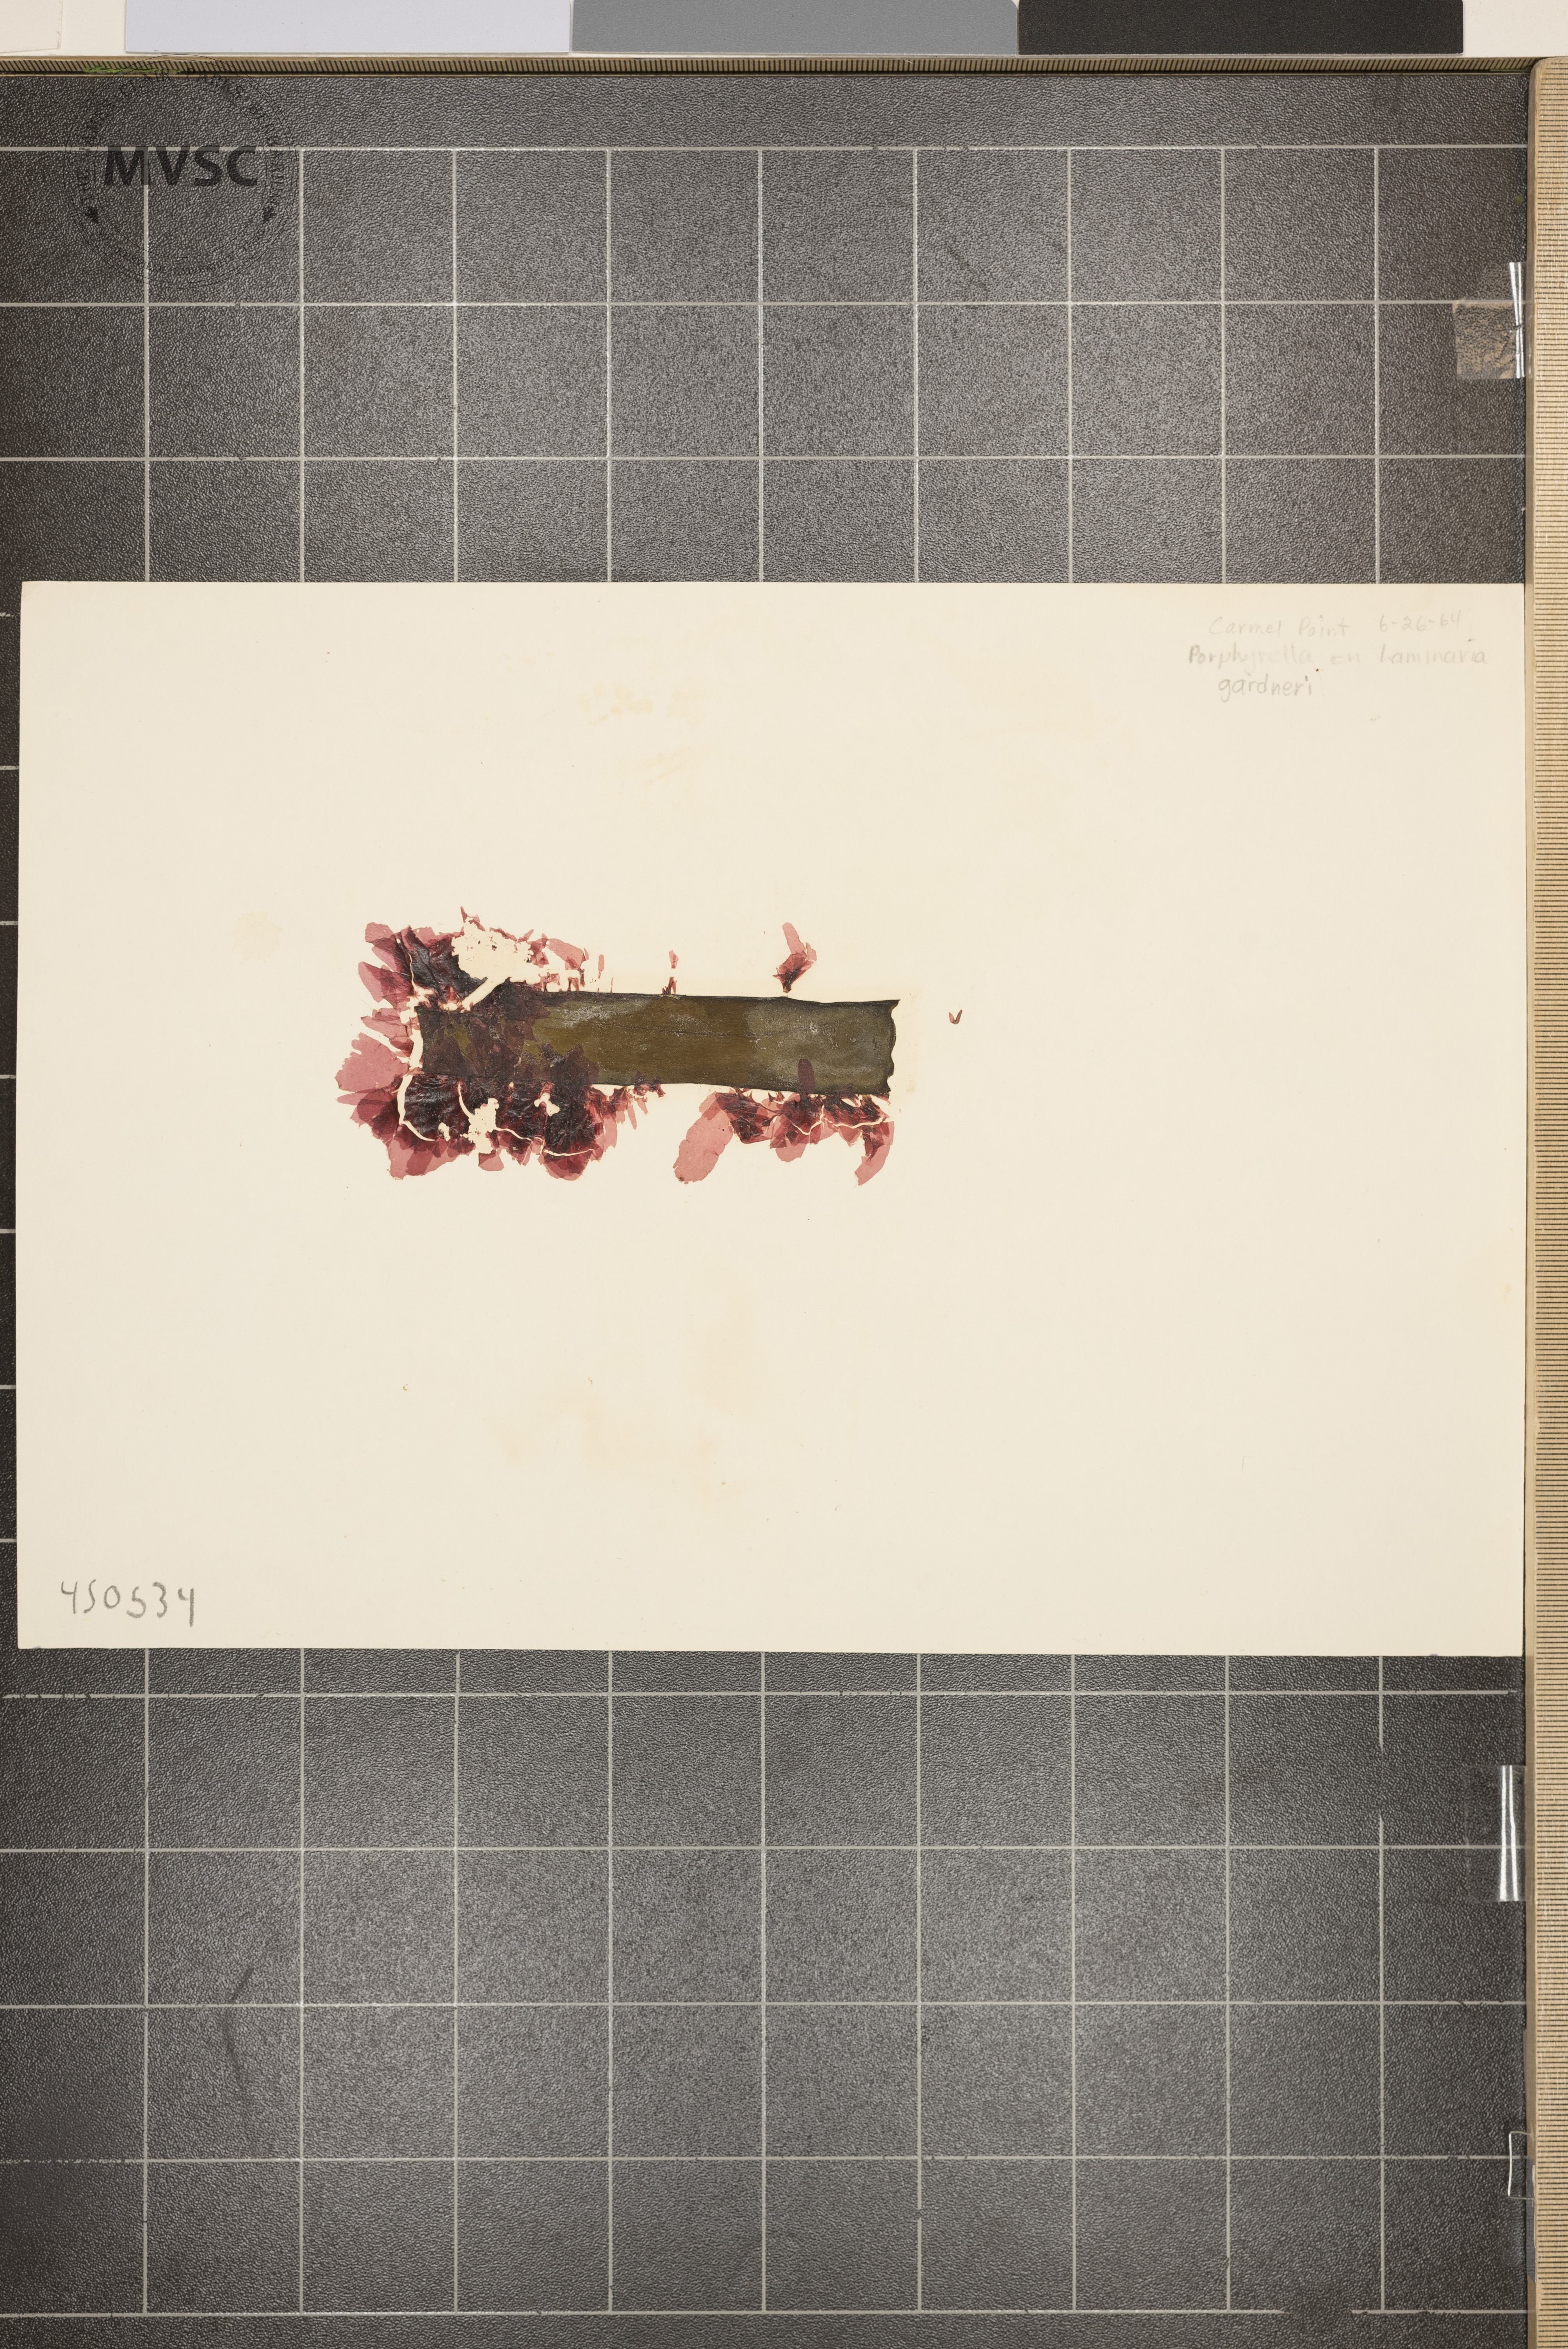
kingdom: Plantae
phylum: Rhodophyta
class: Bangiophyceae
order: Bangiales
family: Bangiaceae
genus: Porphyrella
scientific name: Porphyrella
